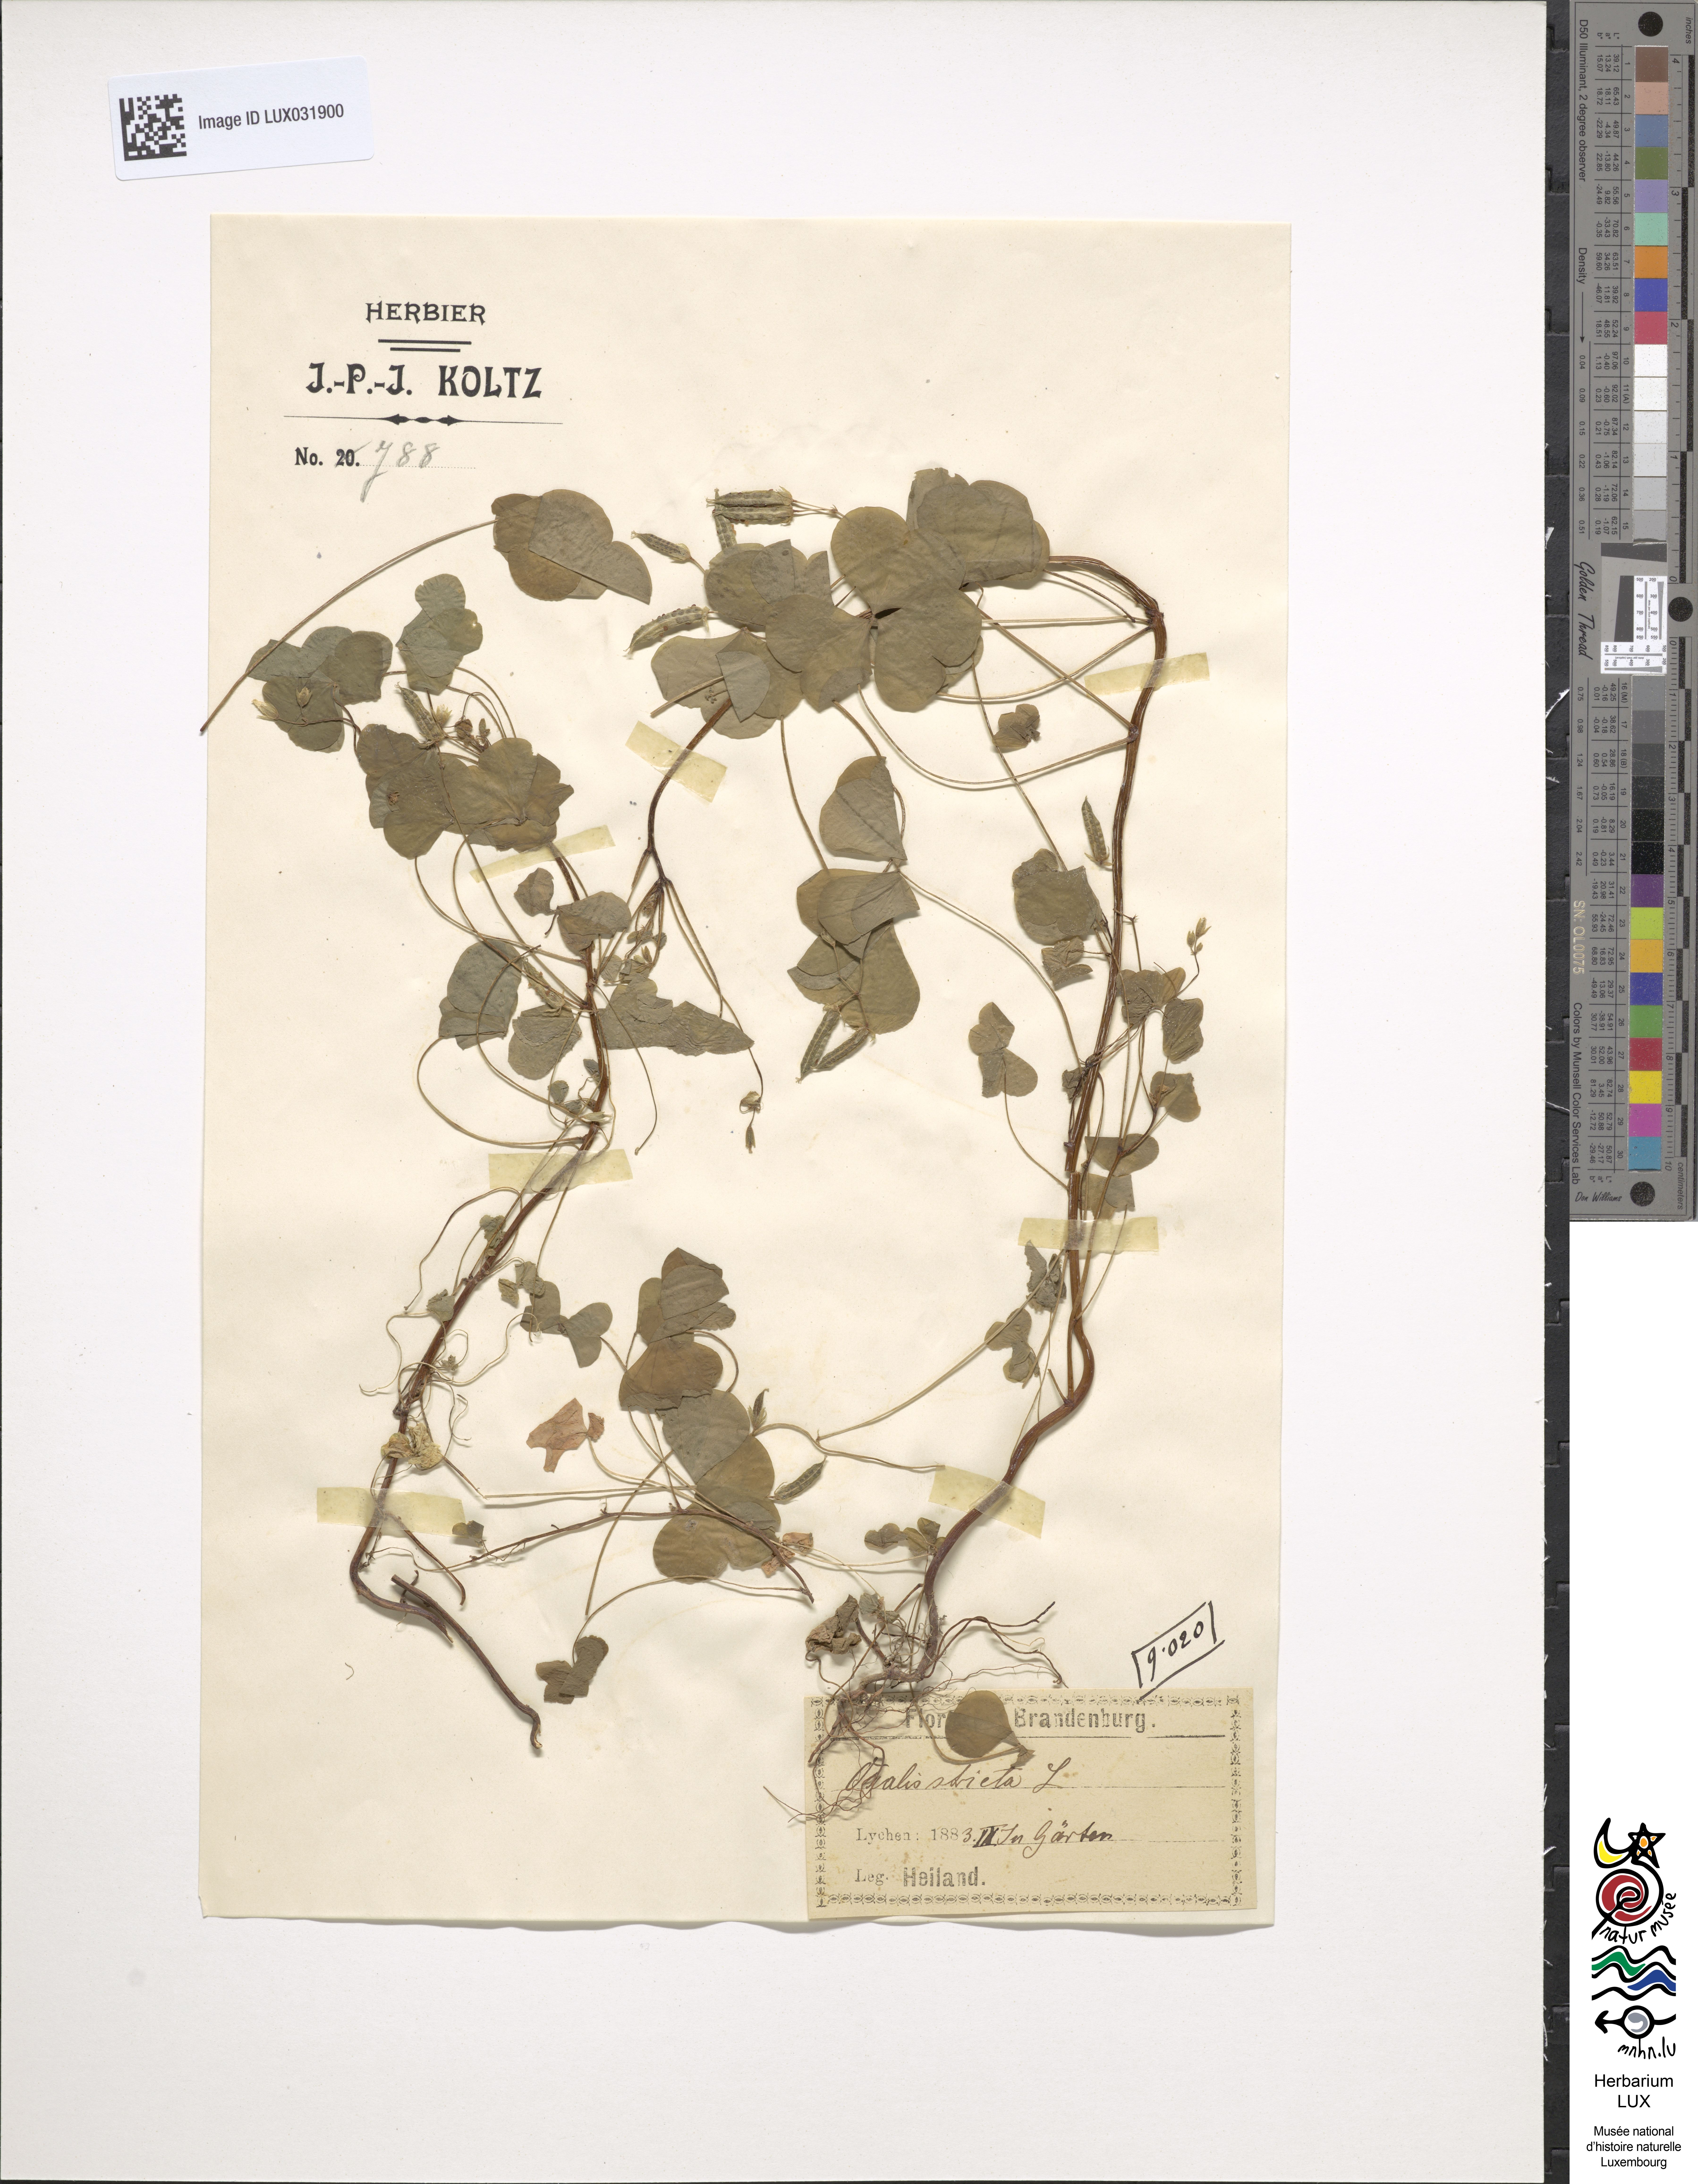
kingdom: Plantae
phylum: Tracheophyta
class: Magnoliopsida
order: Oxalidales
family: Oxalidaceae
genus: Oxalis
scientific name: Oxalis stricta
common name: Upright yellow-sorrel
